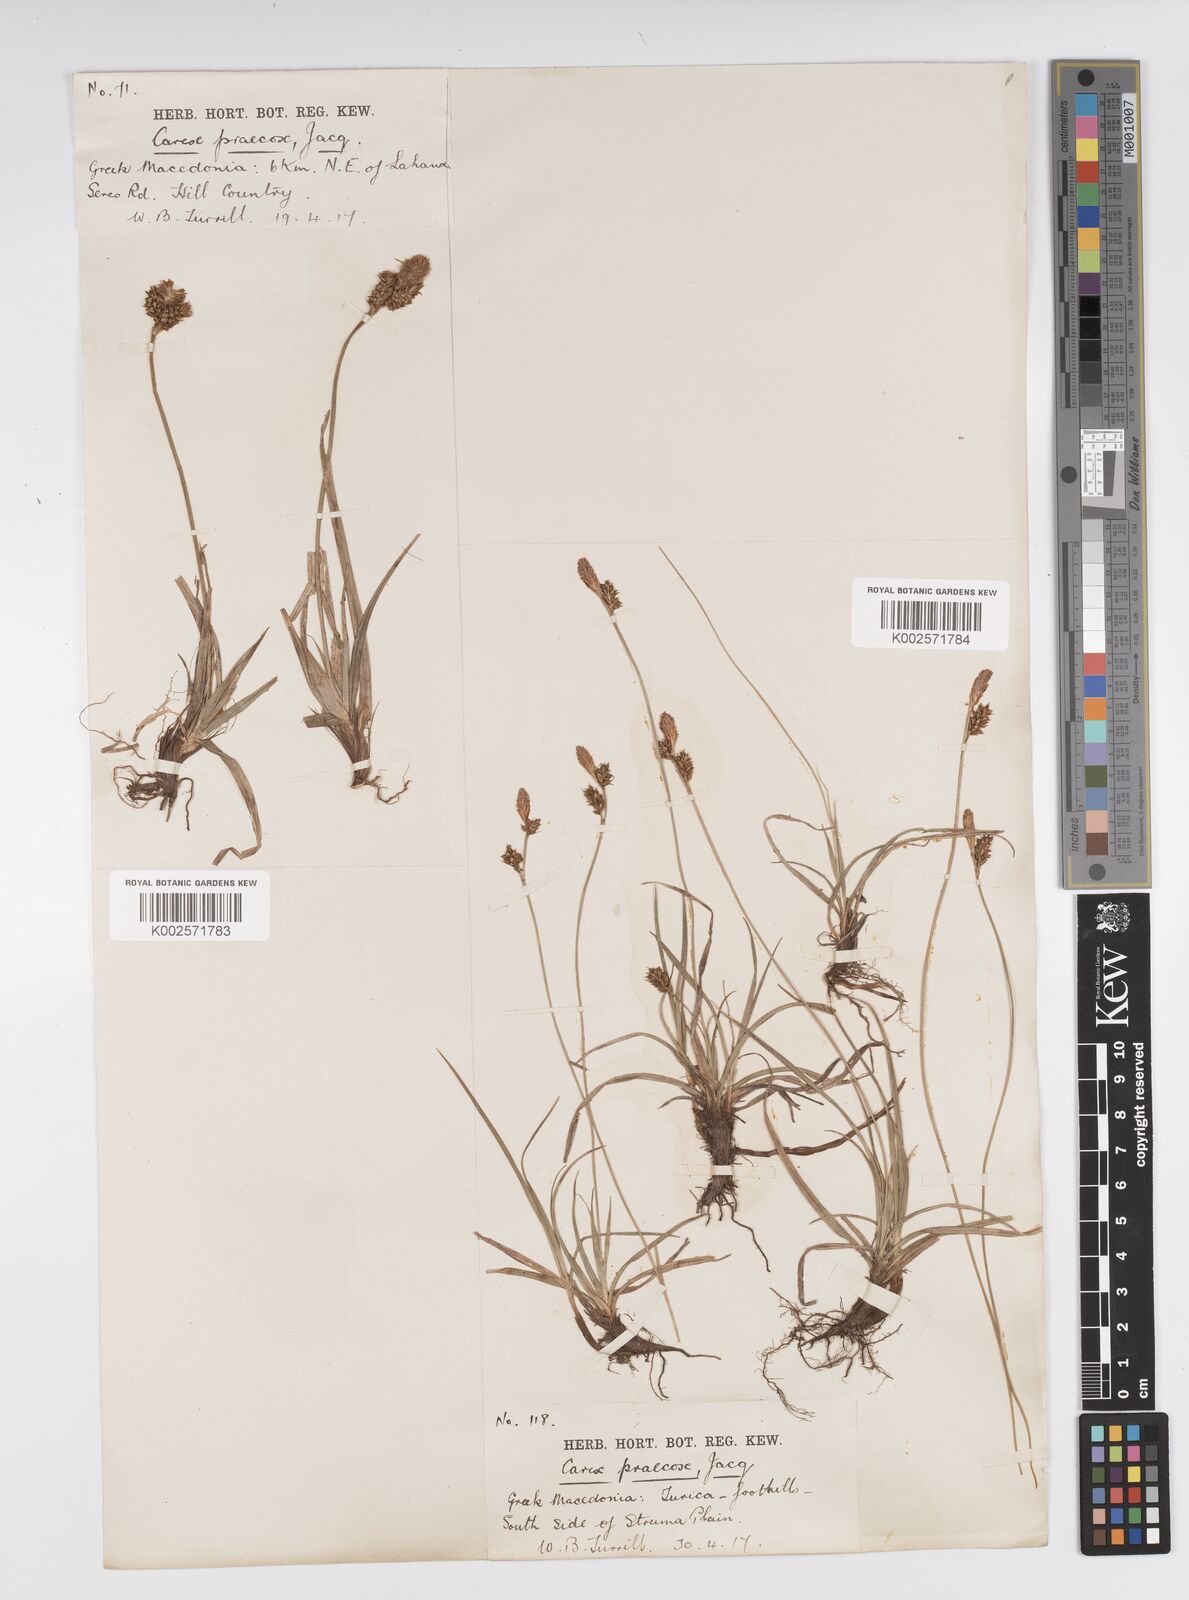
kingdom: Plantae
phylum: Tracheophyta
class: Liliopsida
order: Poales
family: Cyperaceae
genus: Carex
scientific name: Carex caryophyllea
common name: Spring sedge
